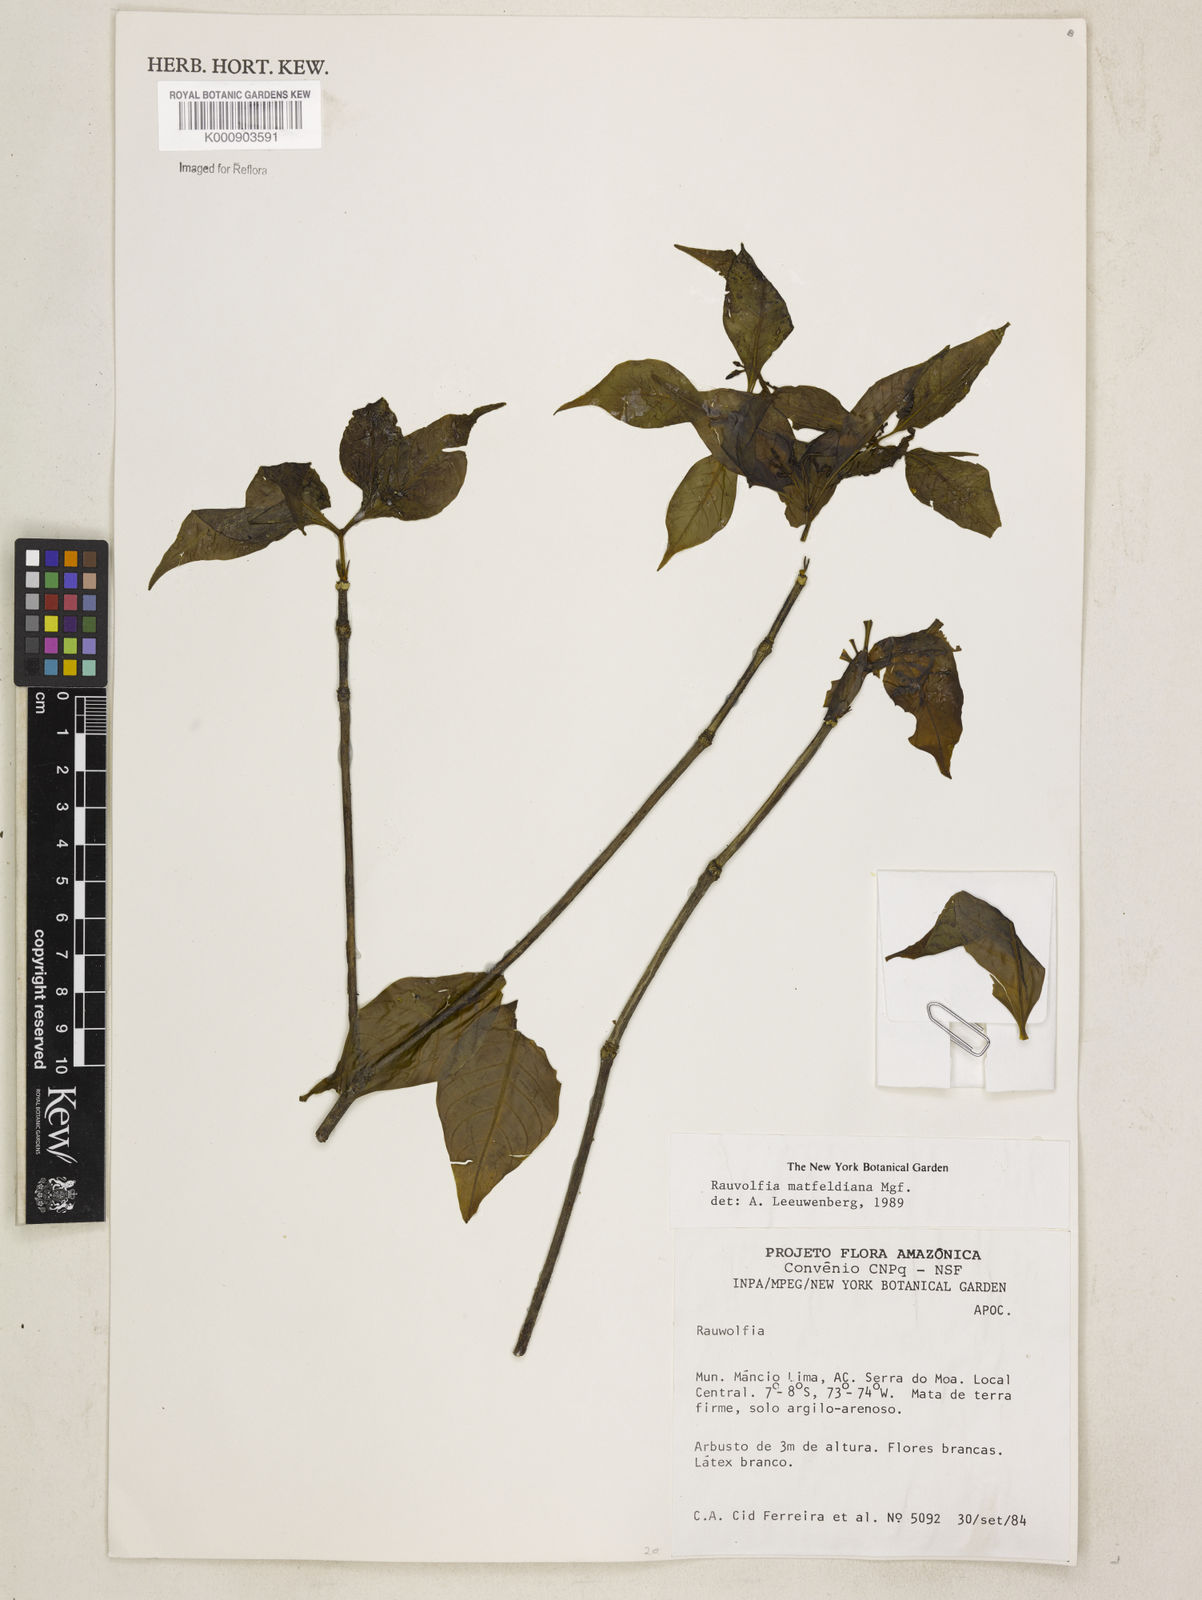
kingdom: Plantae
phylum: Tracheophyta
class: Magnoliopsida
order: Gentianales
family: Apocynaceae
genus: Rauvolfia
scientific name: Rauvolfia mattfeldiana
